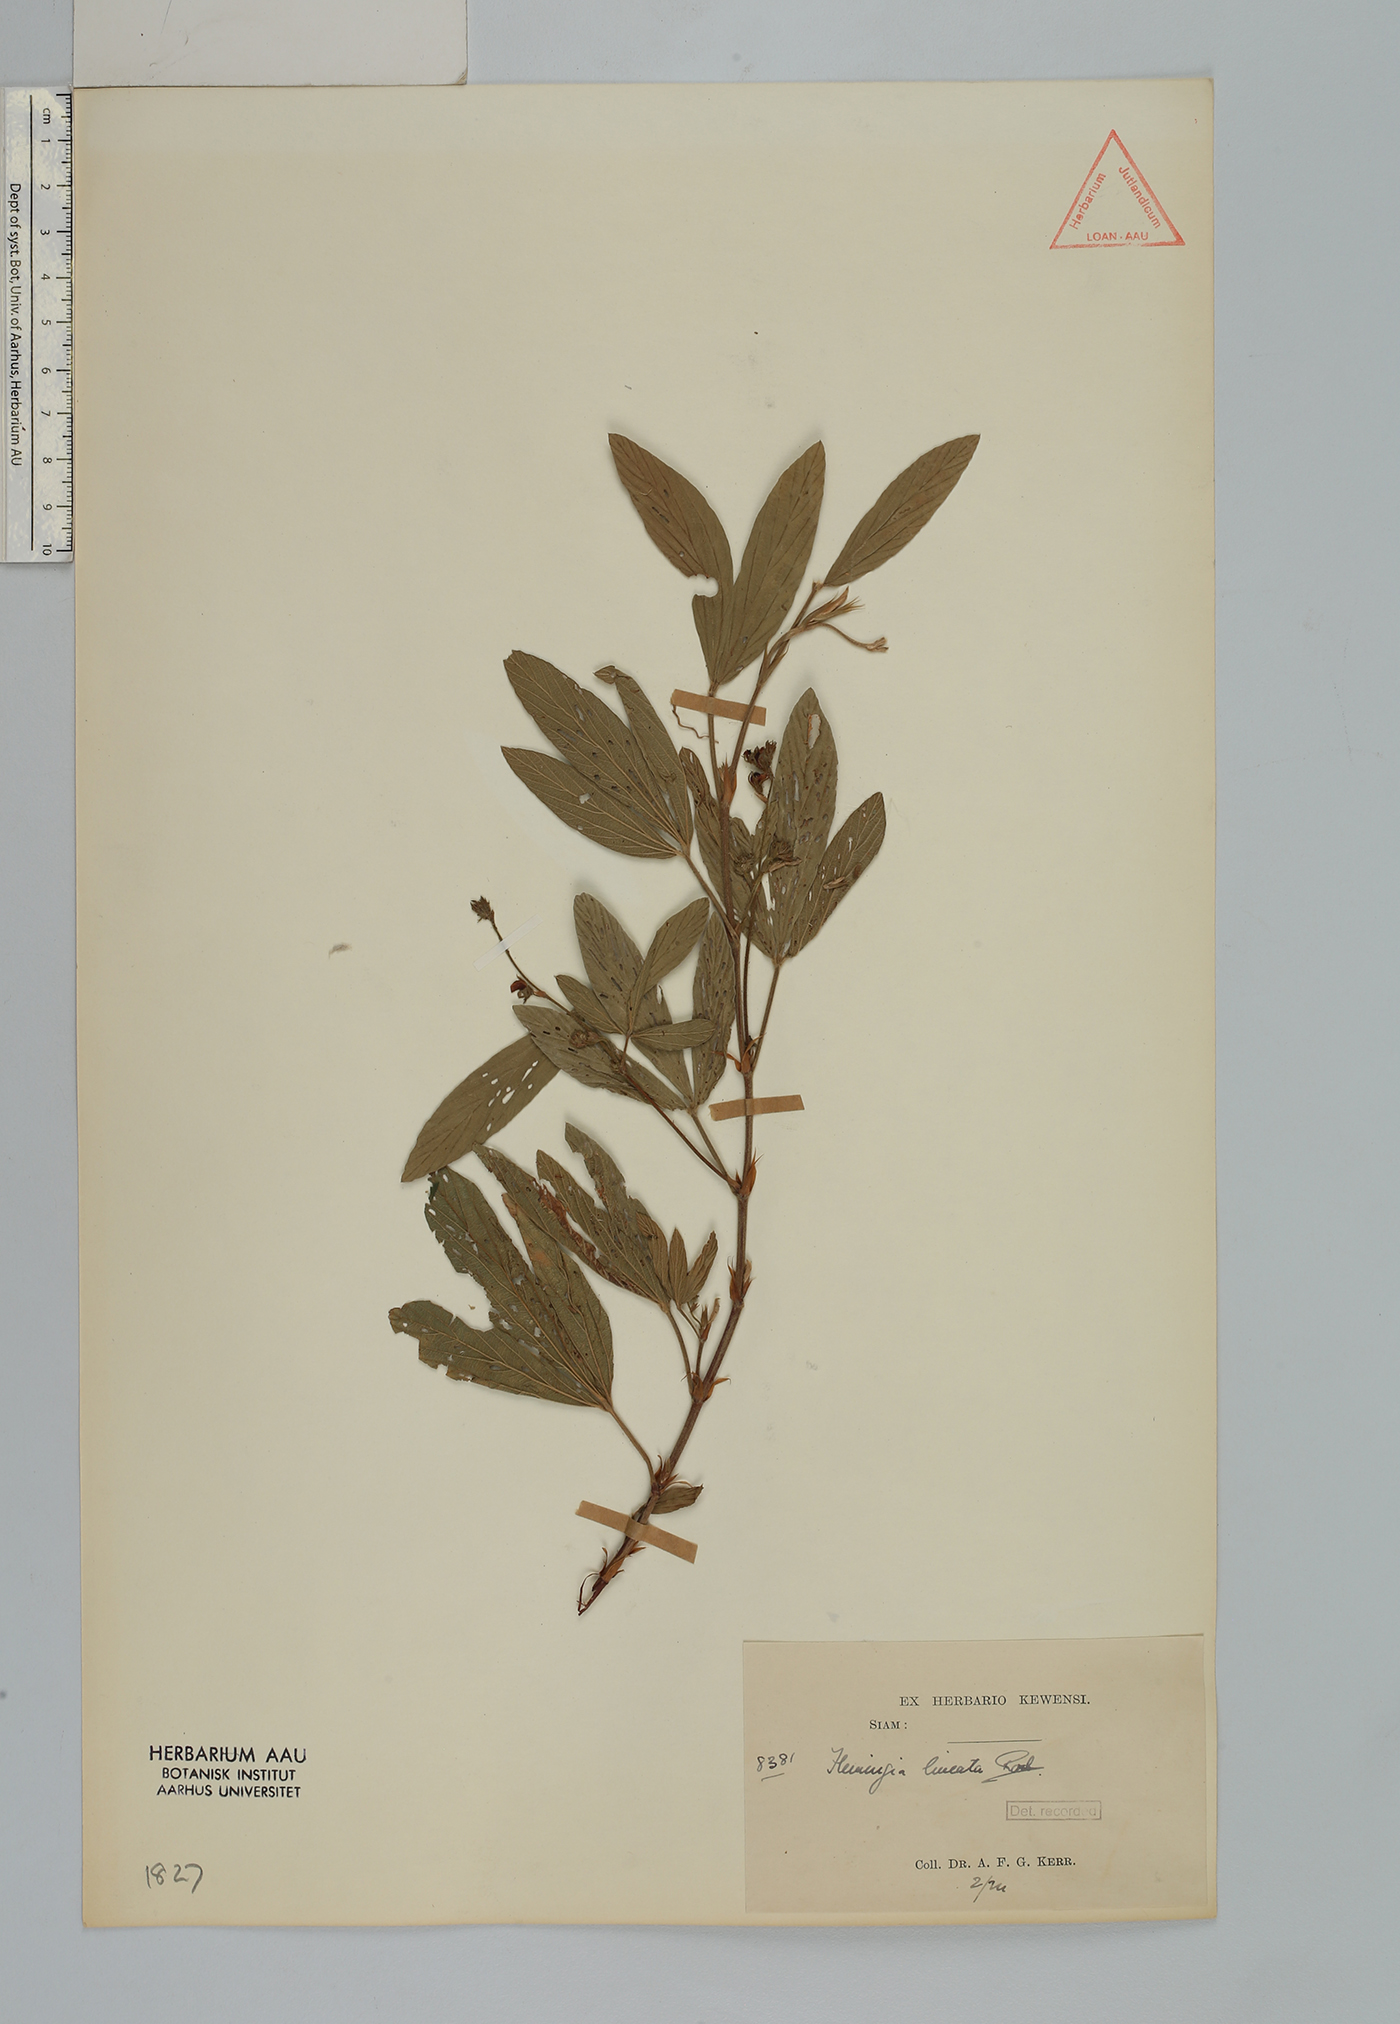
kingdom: Plantae
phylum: Tracheophyta
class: Magnoliopsida
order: Fabales
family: Fabaceae
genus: Flemingia
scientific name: Flemingia lineata
